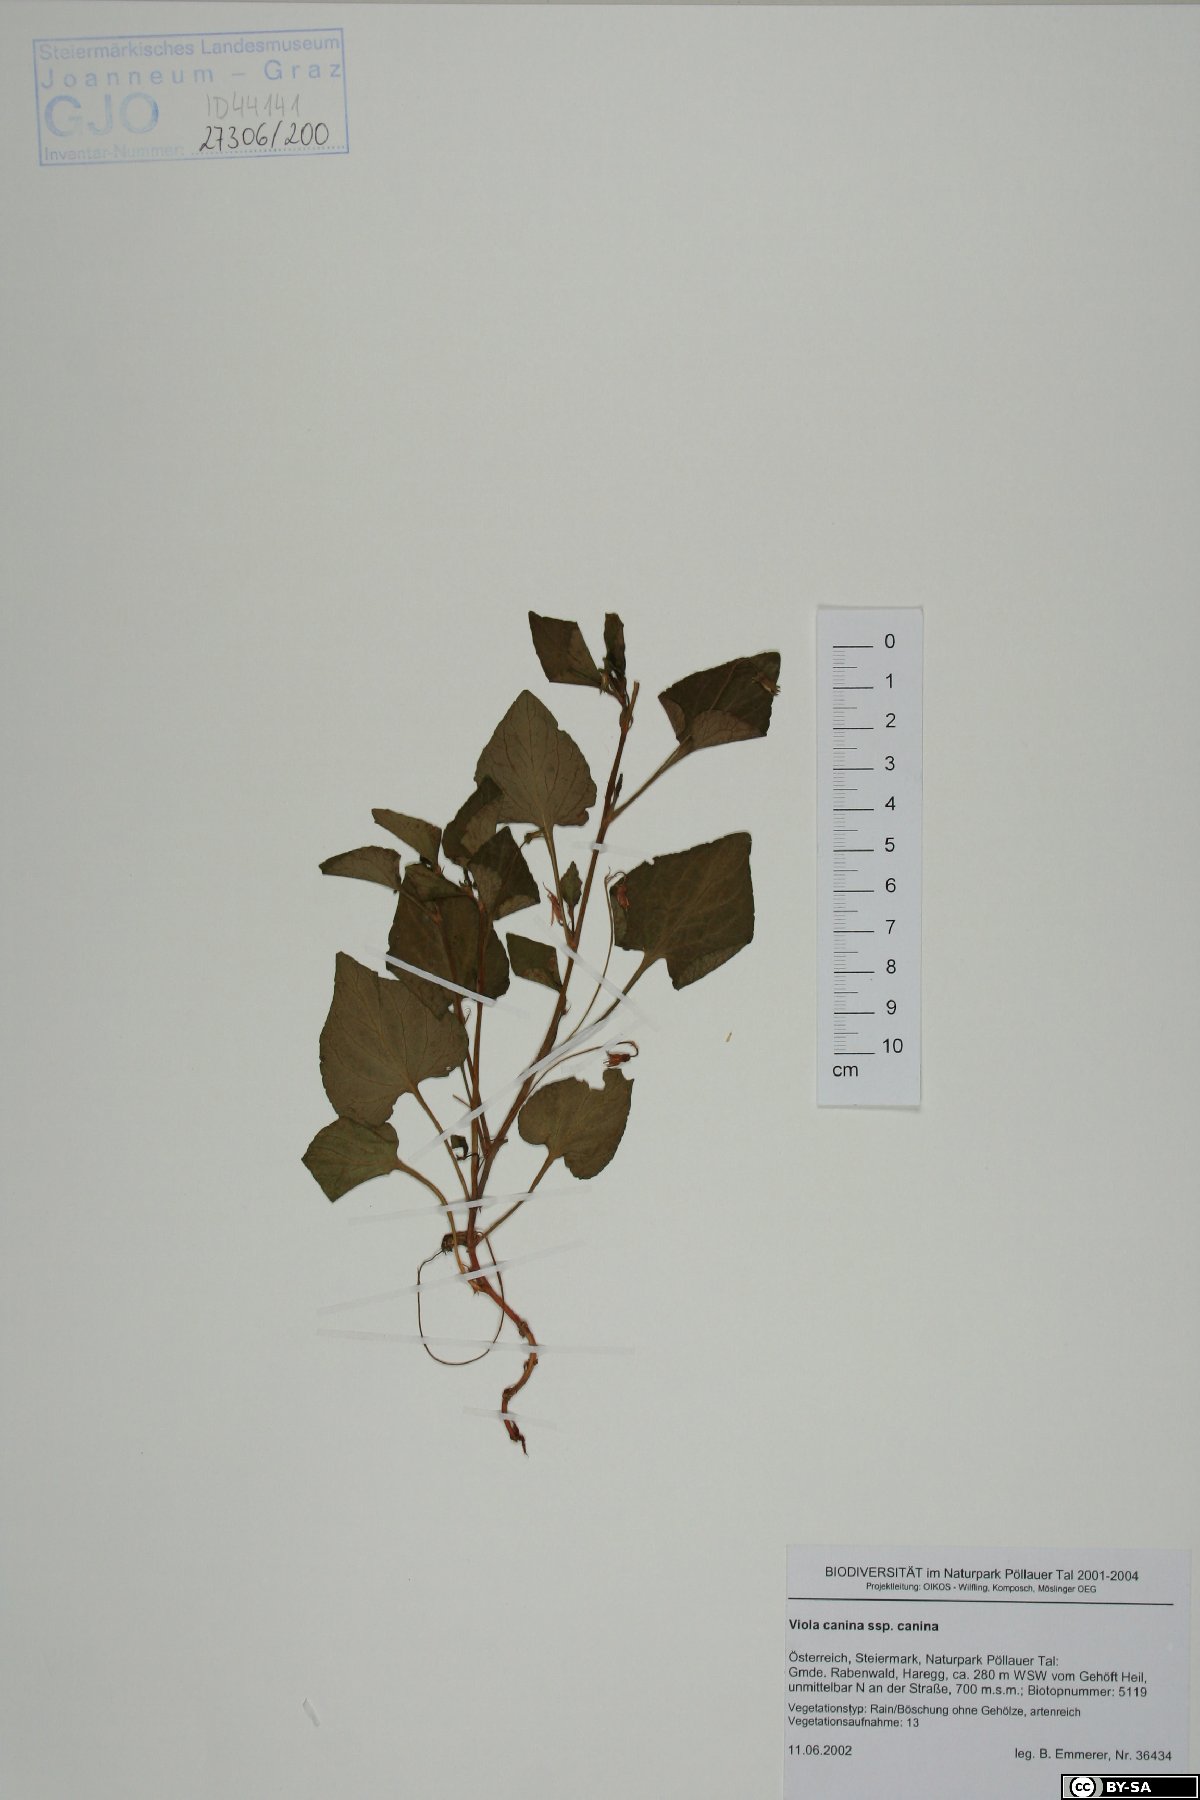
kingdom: Plantae
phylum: Tracheophyta
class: Magnoliopsida
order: Malpighiales
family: Violaceae
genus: Viola
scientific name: Viola canina
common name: Heath dog-violet
